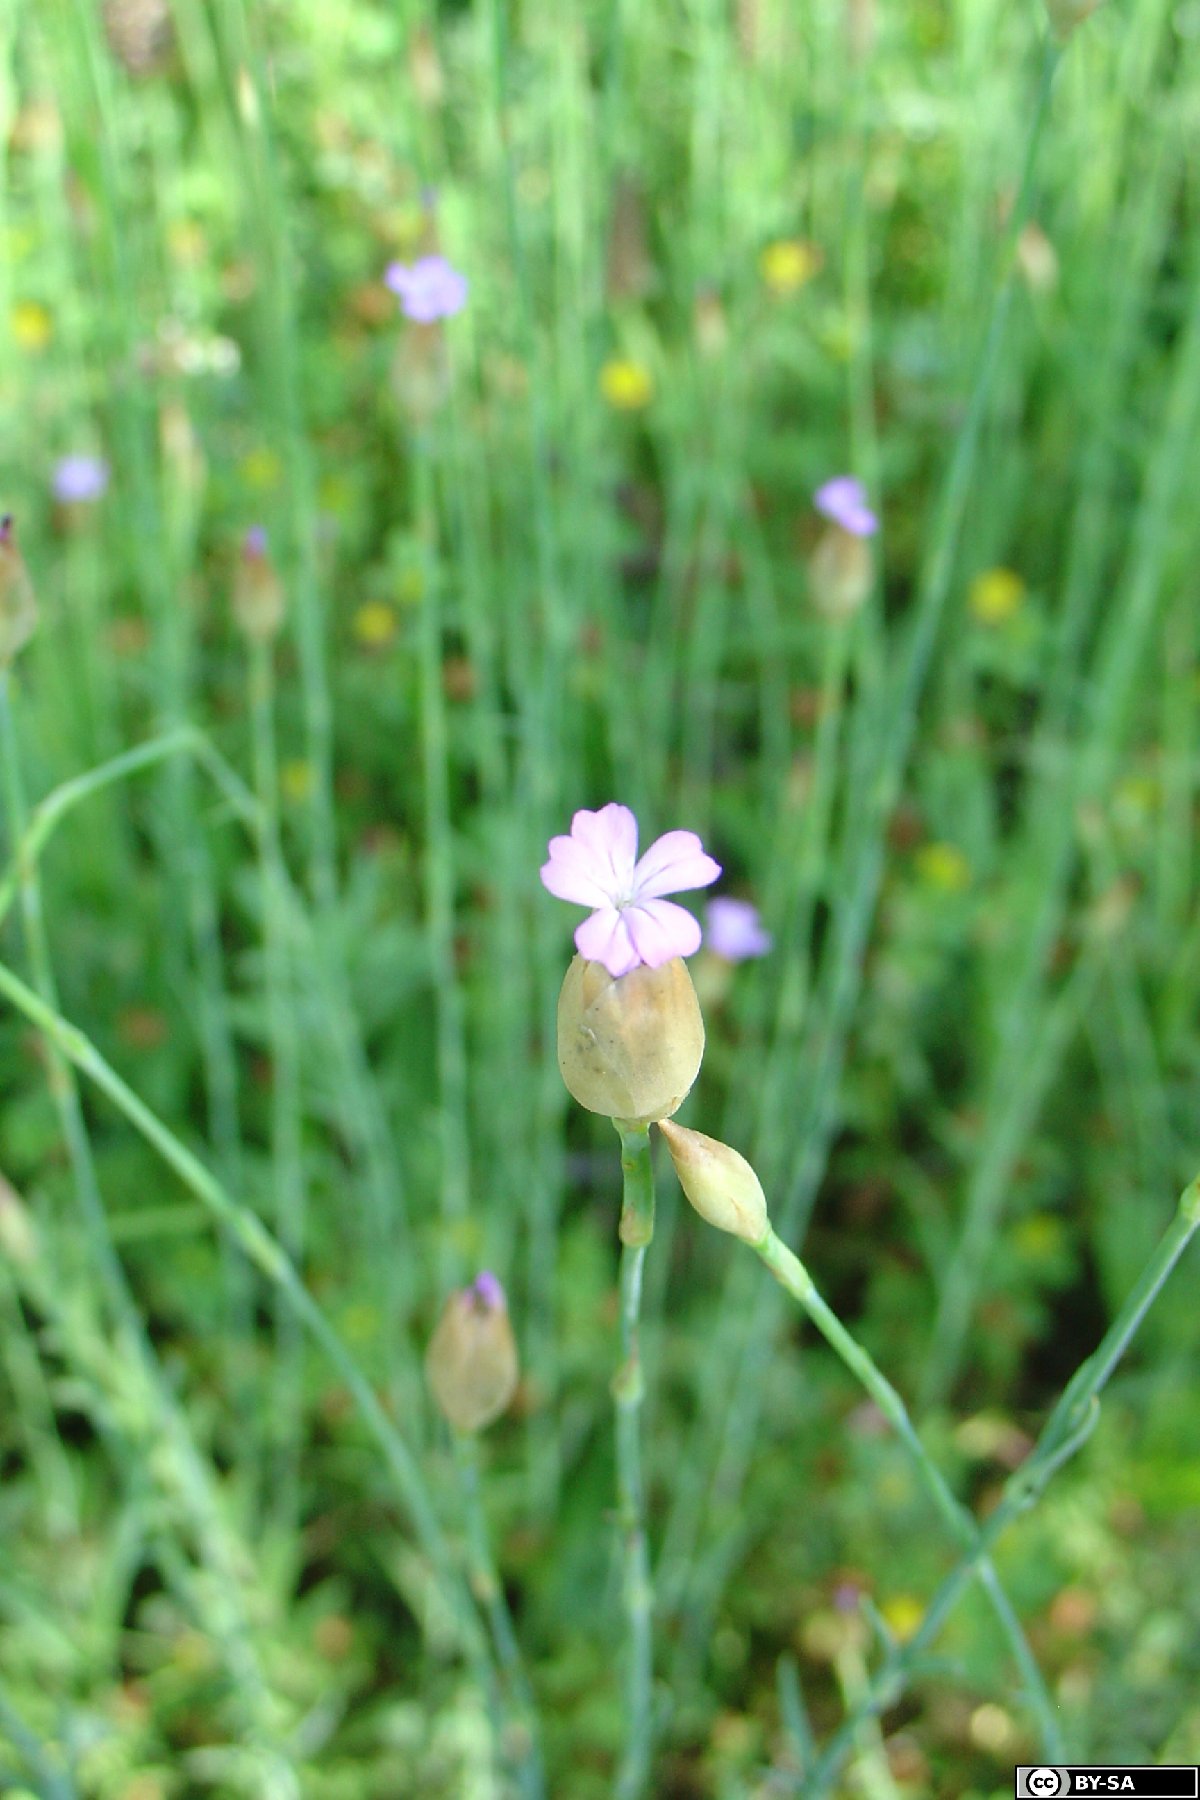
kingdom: Plantae
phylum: Tracheophyta
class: Magnoliopsida
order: Caryophyllales
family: Caryophyllaceae
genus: Petrorhagia
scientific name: Petrorhagia prolifera
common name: Proliferous pink
